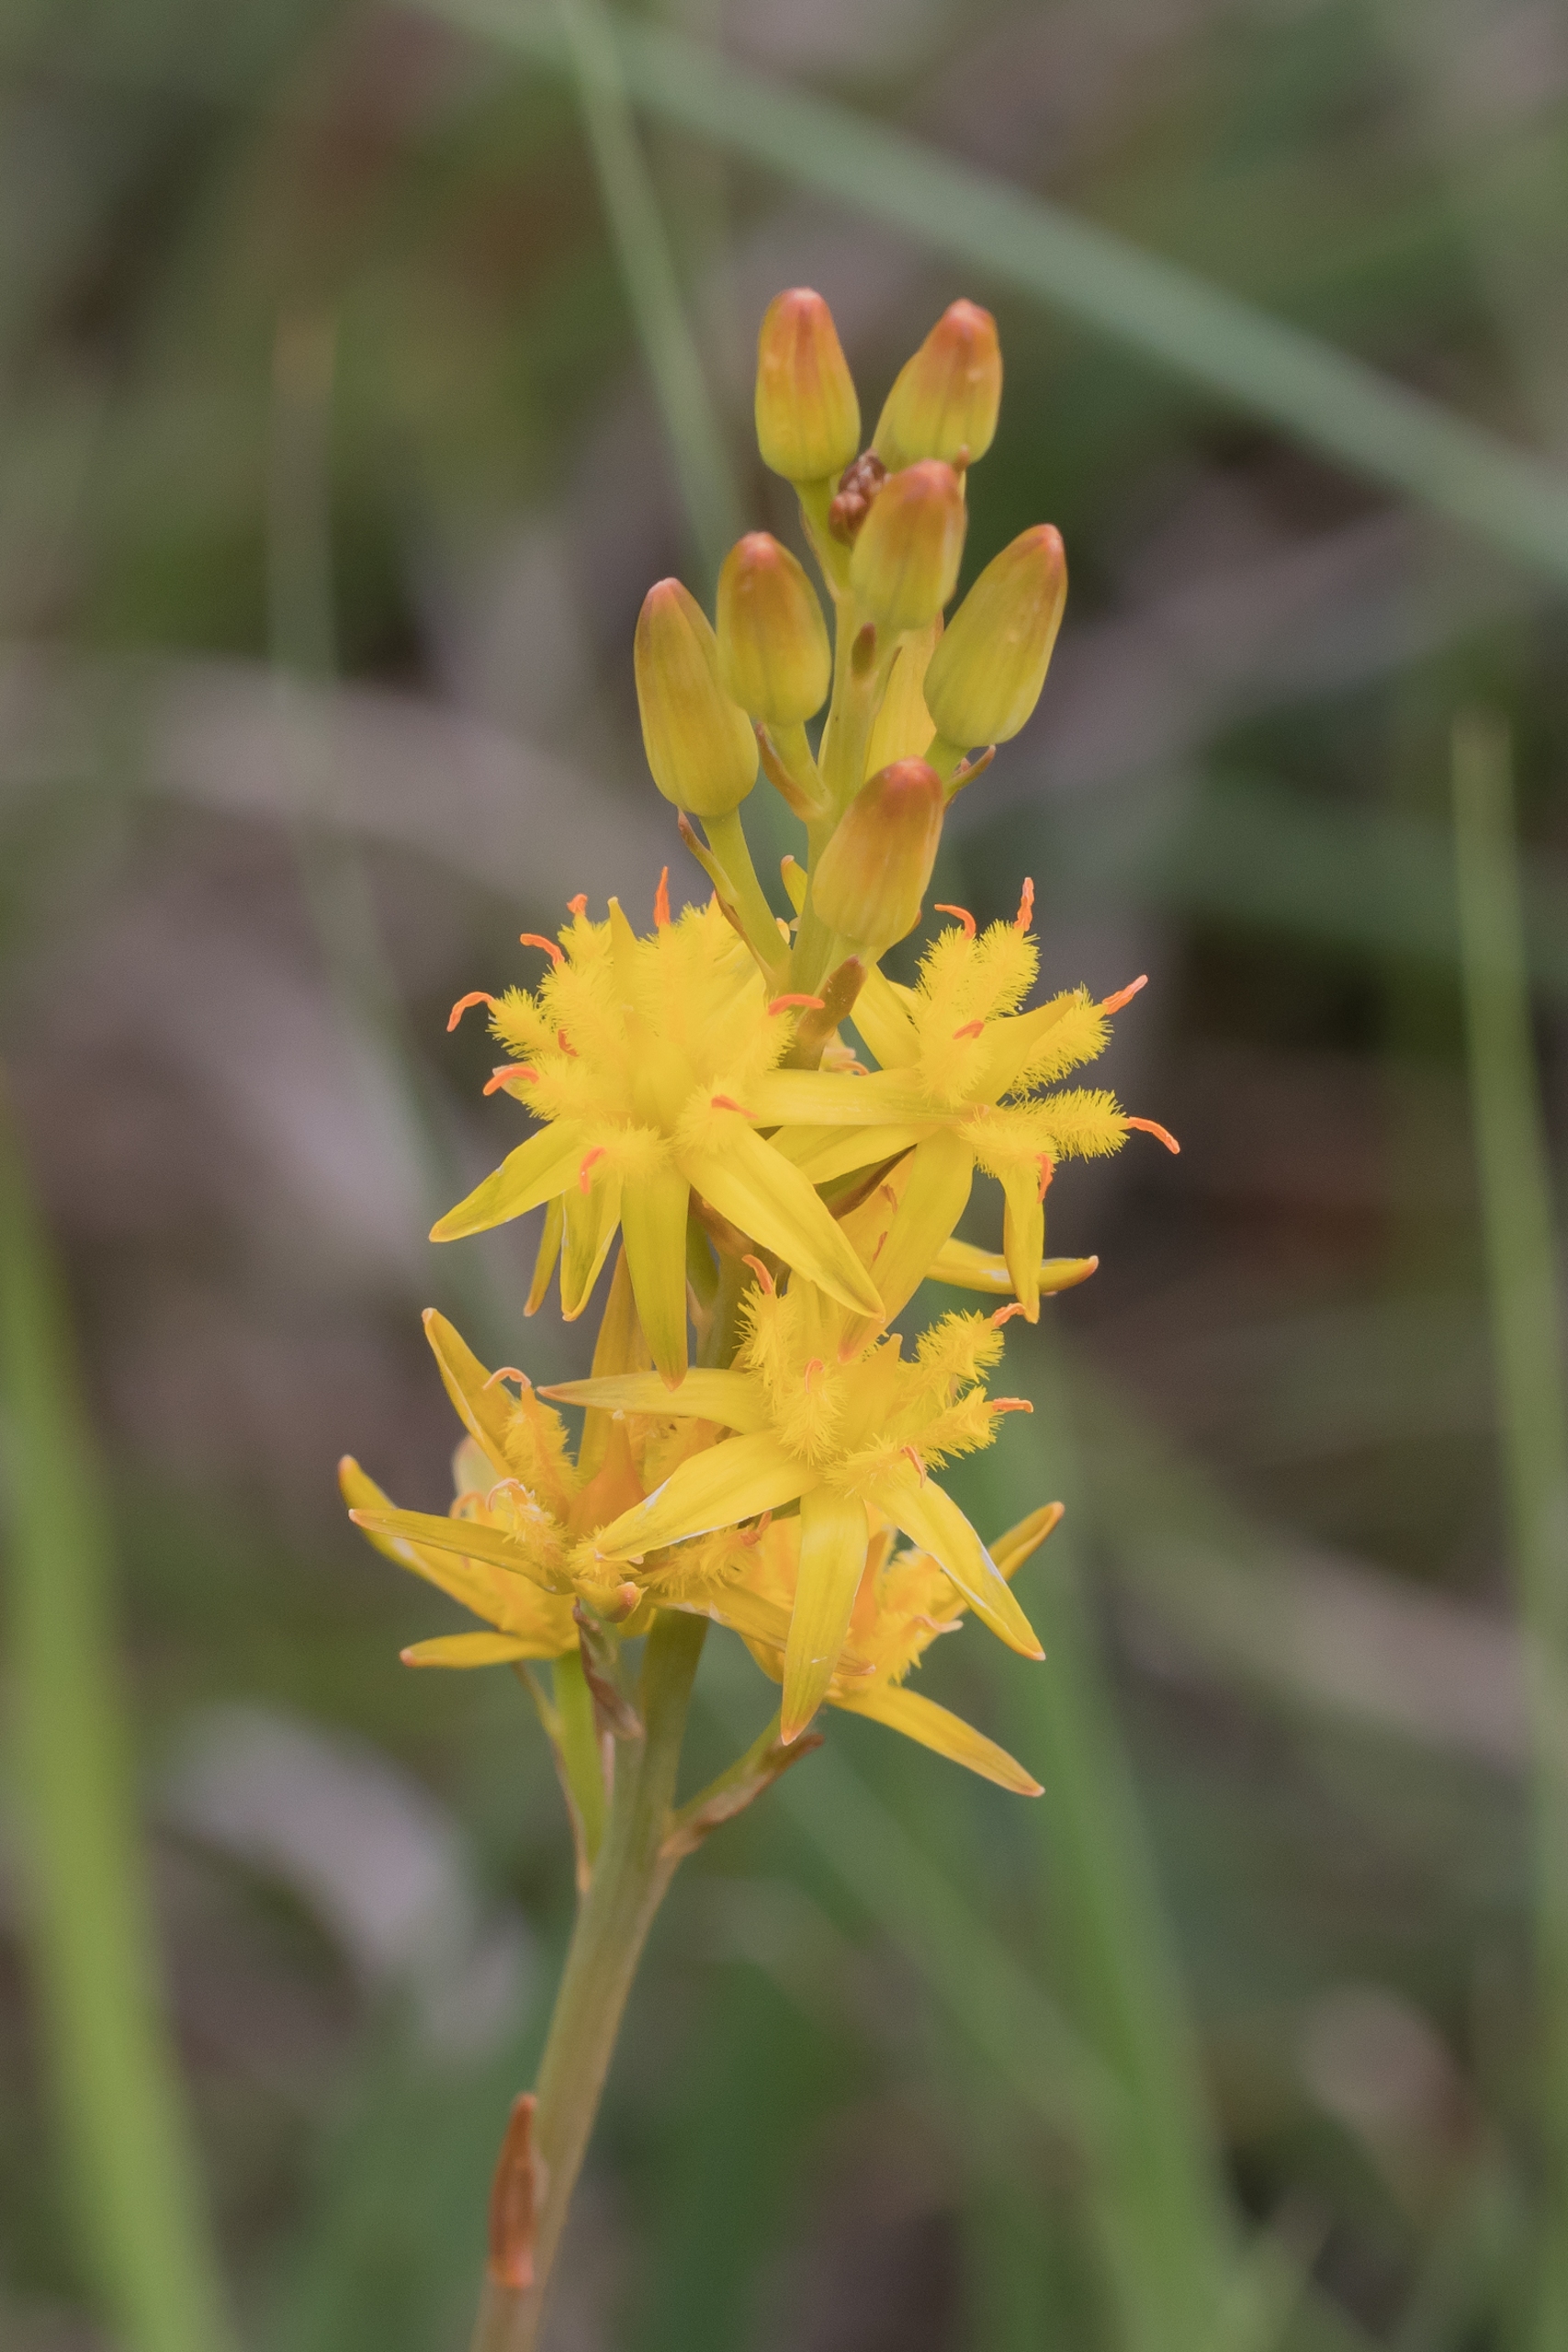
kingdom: Plantae
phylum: Tracheophyta
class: Liliopsida
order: Dioscoreales
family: Nartheciaceae
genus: Narthecium
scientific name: Narthecium ossifragum
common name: Benbræk
